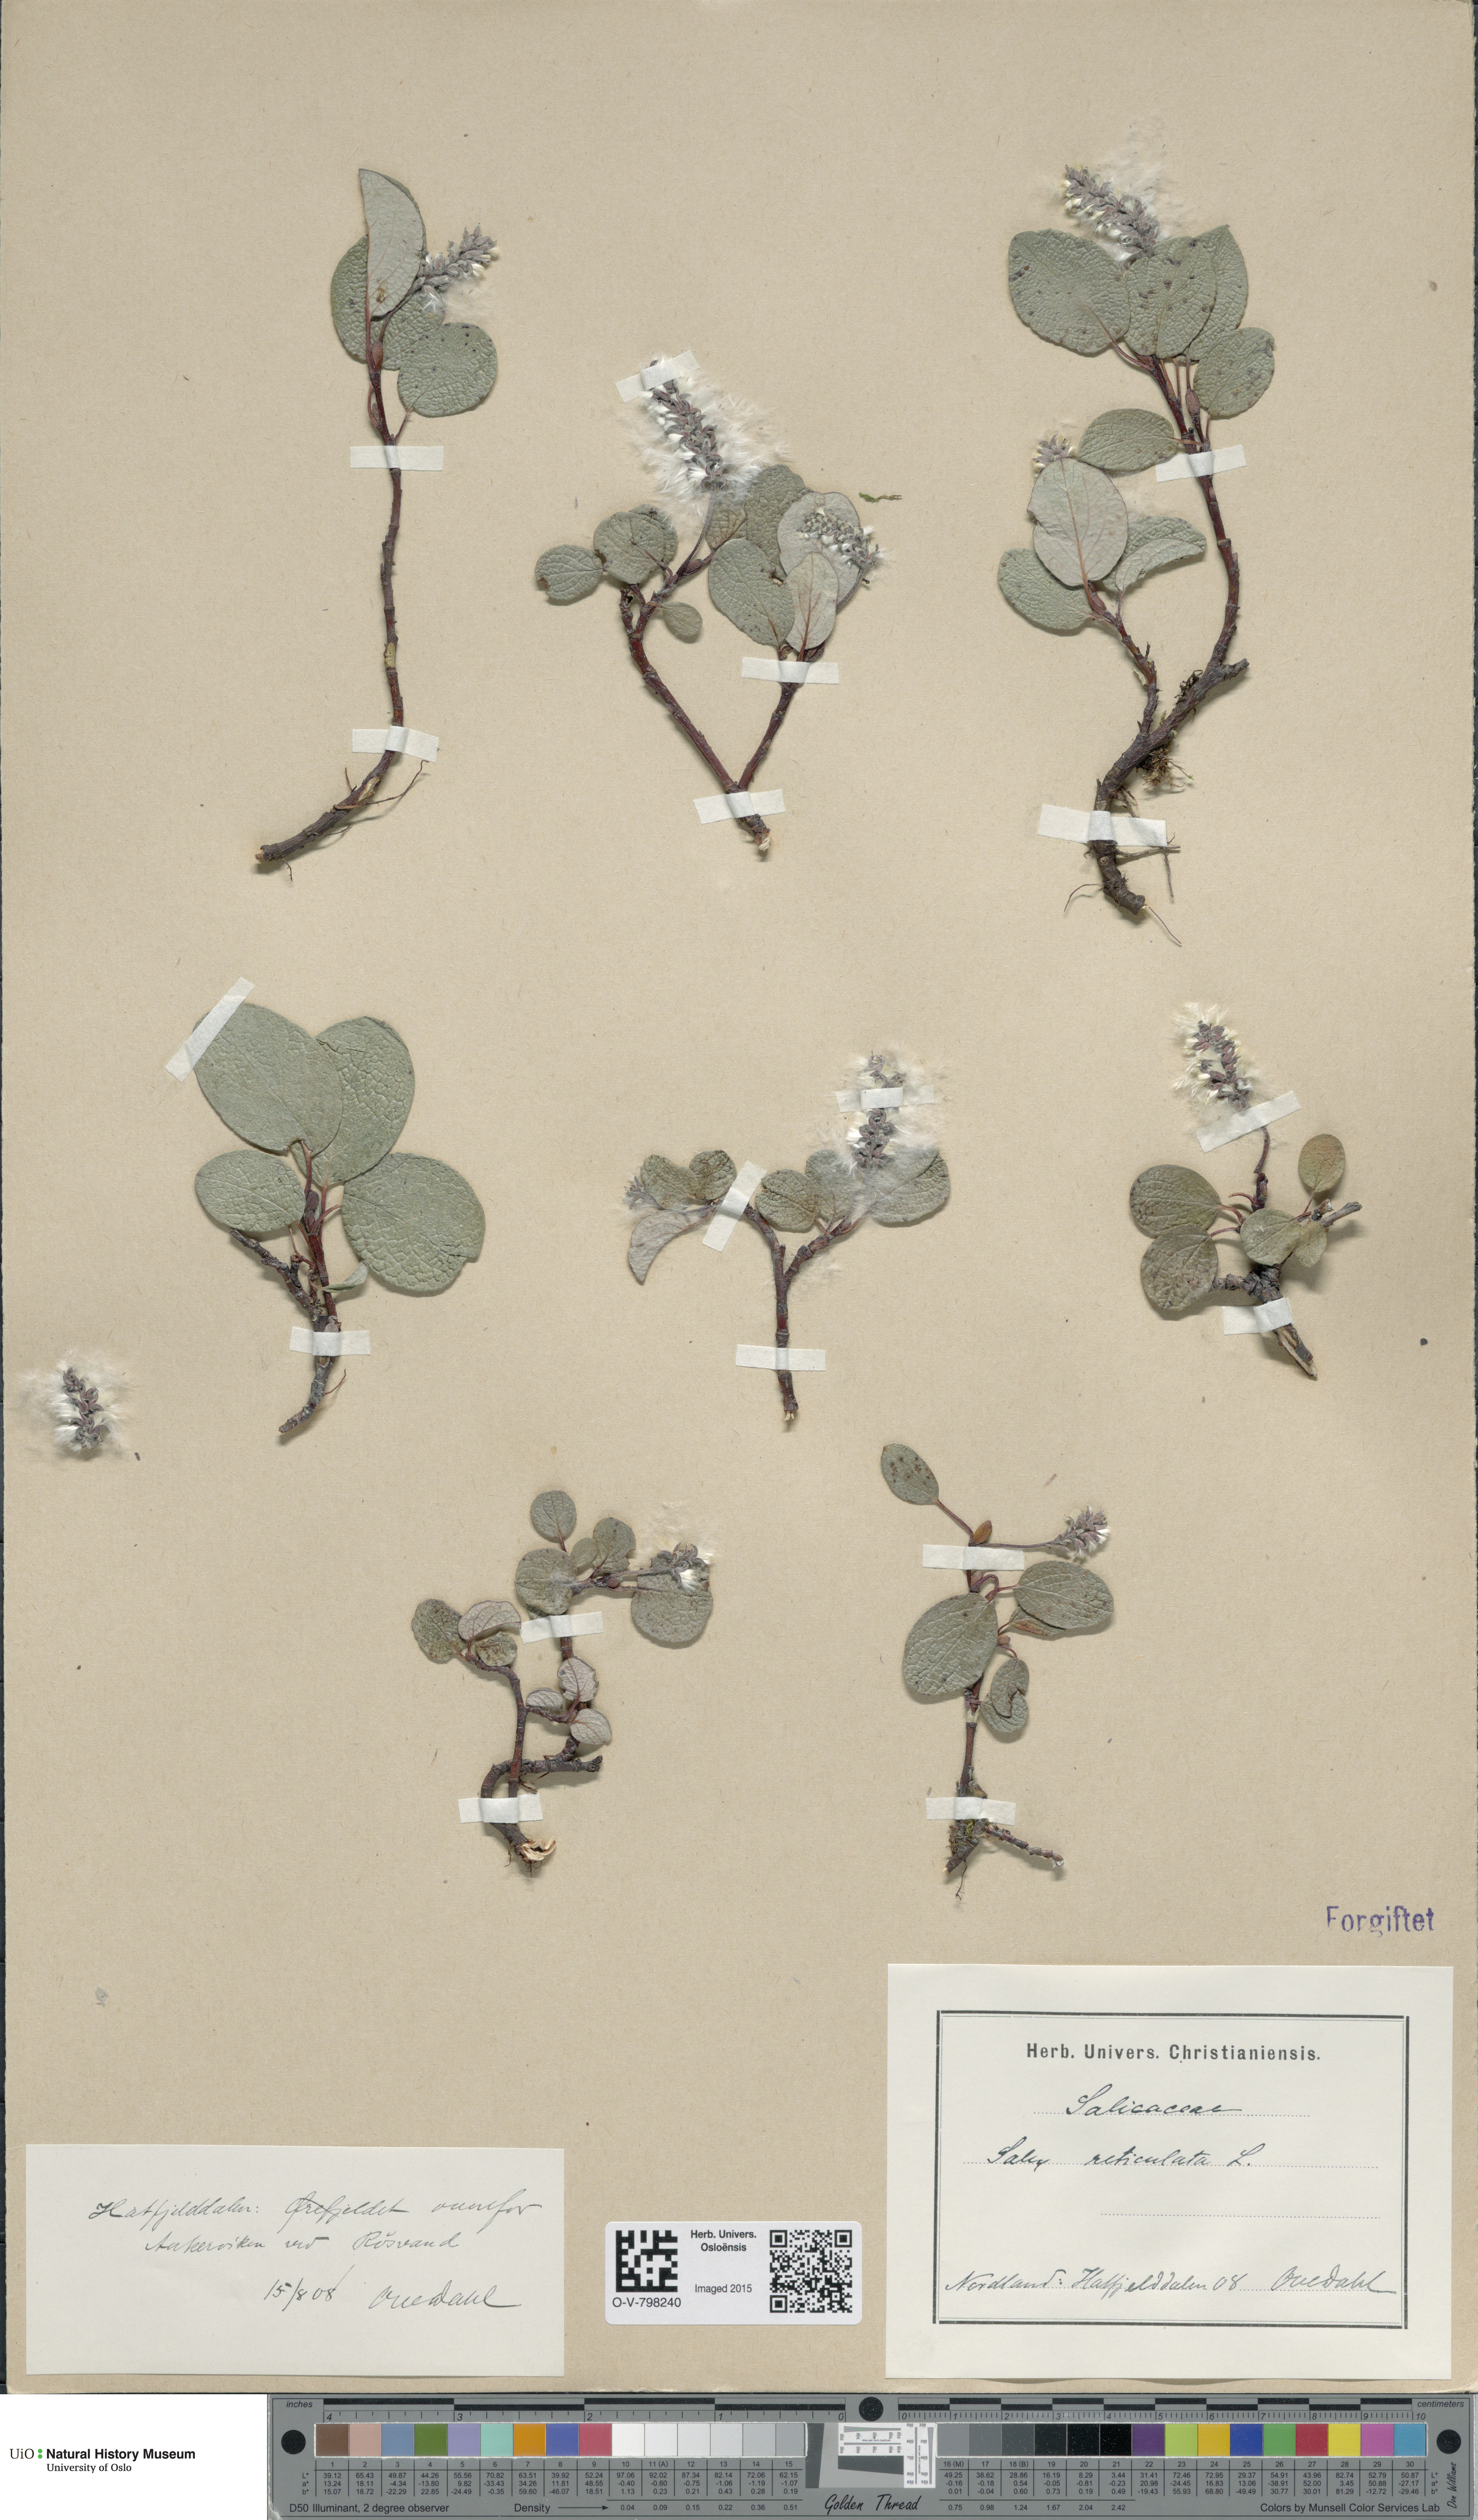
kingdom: Plantae
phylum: Tracheophyta
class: Magnoliopsida
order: Malpighiales
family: Salicaceae
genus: Salix
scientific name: Salix reticulata
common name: Net-leaved willow
